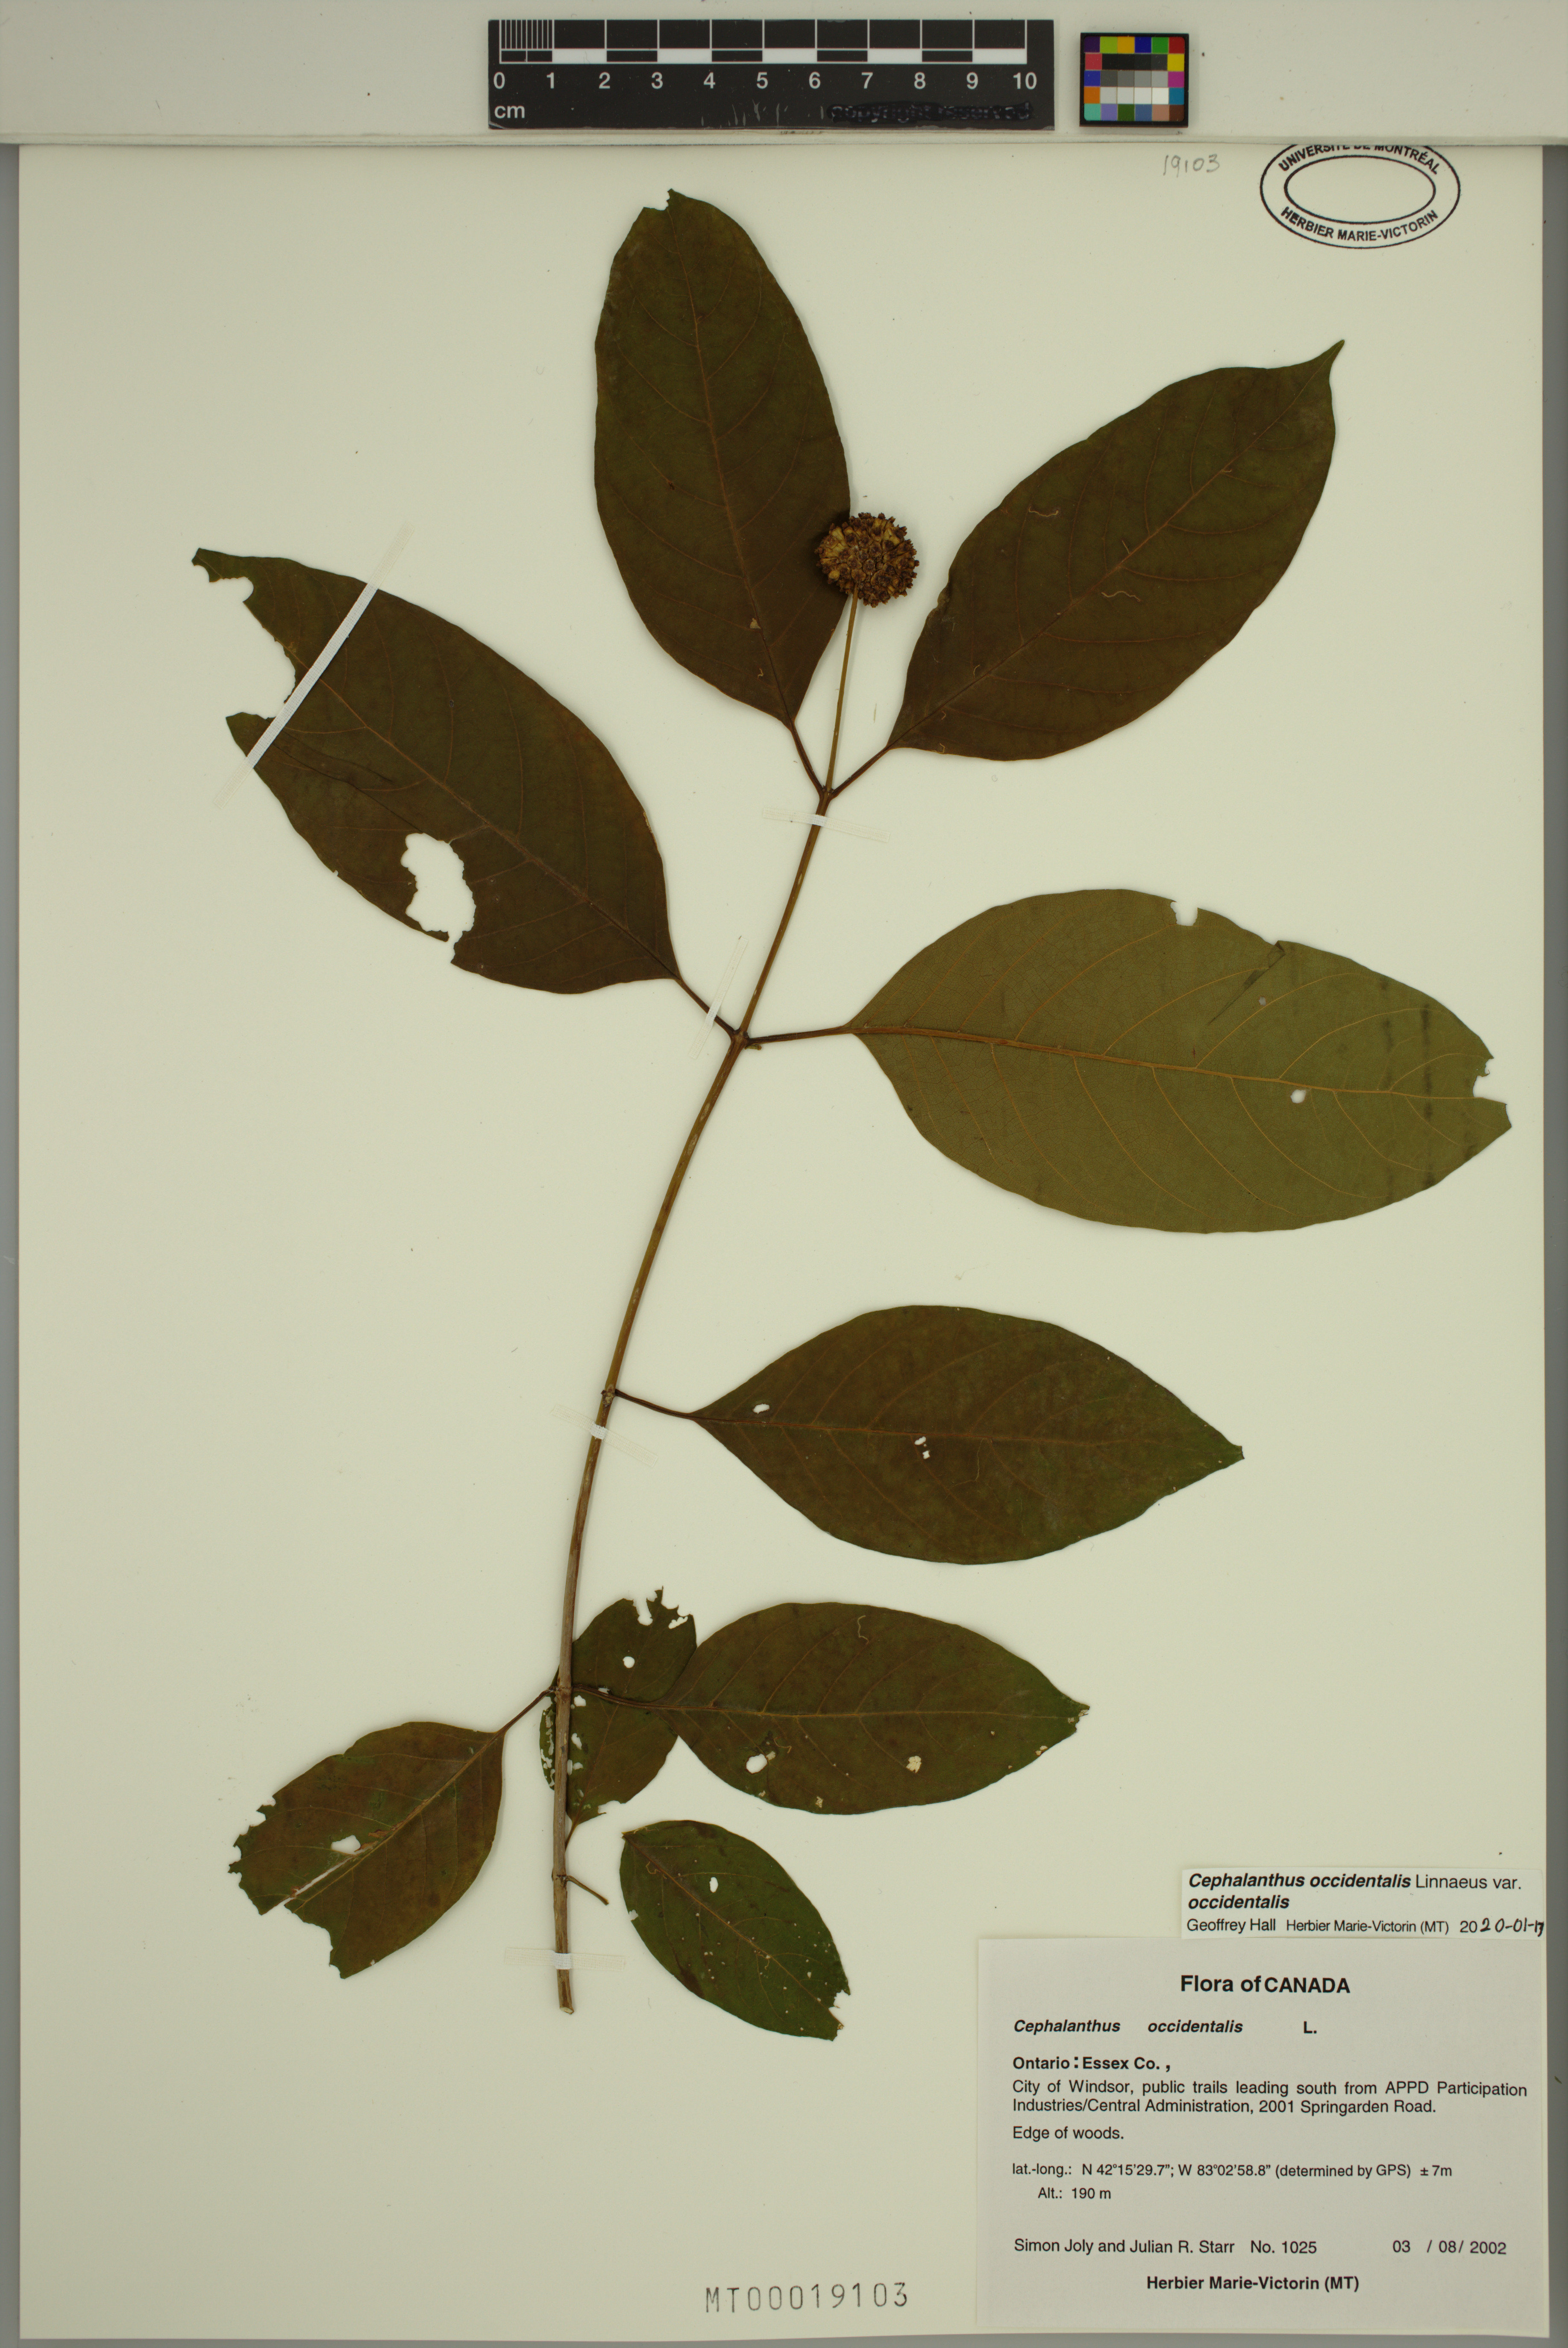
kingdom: Plantae
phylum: Tracheophyta
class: Magnoliopsida
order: Gentianales
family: Rubiaceae
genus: Cephalanthus
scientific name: Cephalanthus occidentalis
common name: Button-willow
